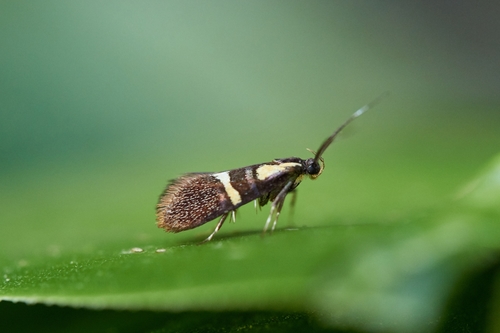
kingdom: Animalia
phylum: Arthropoda
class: Insecta
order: Lepidoptera
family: Oecophoridae
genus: Dafa
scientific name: Dafa oliviella
